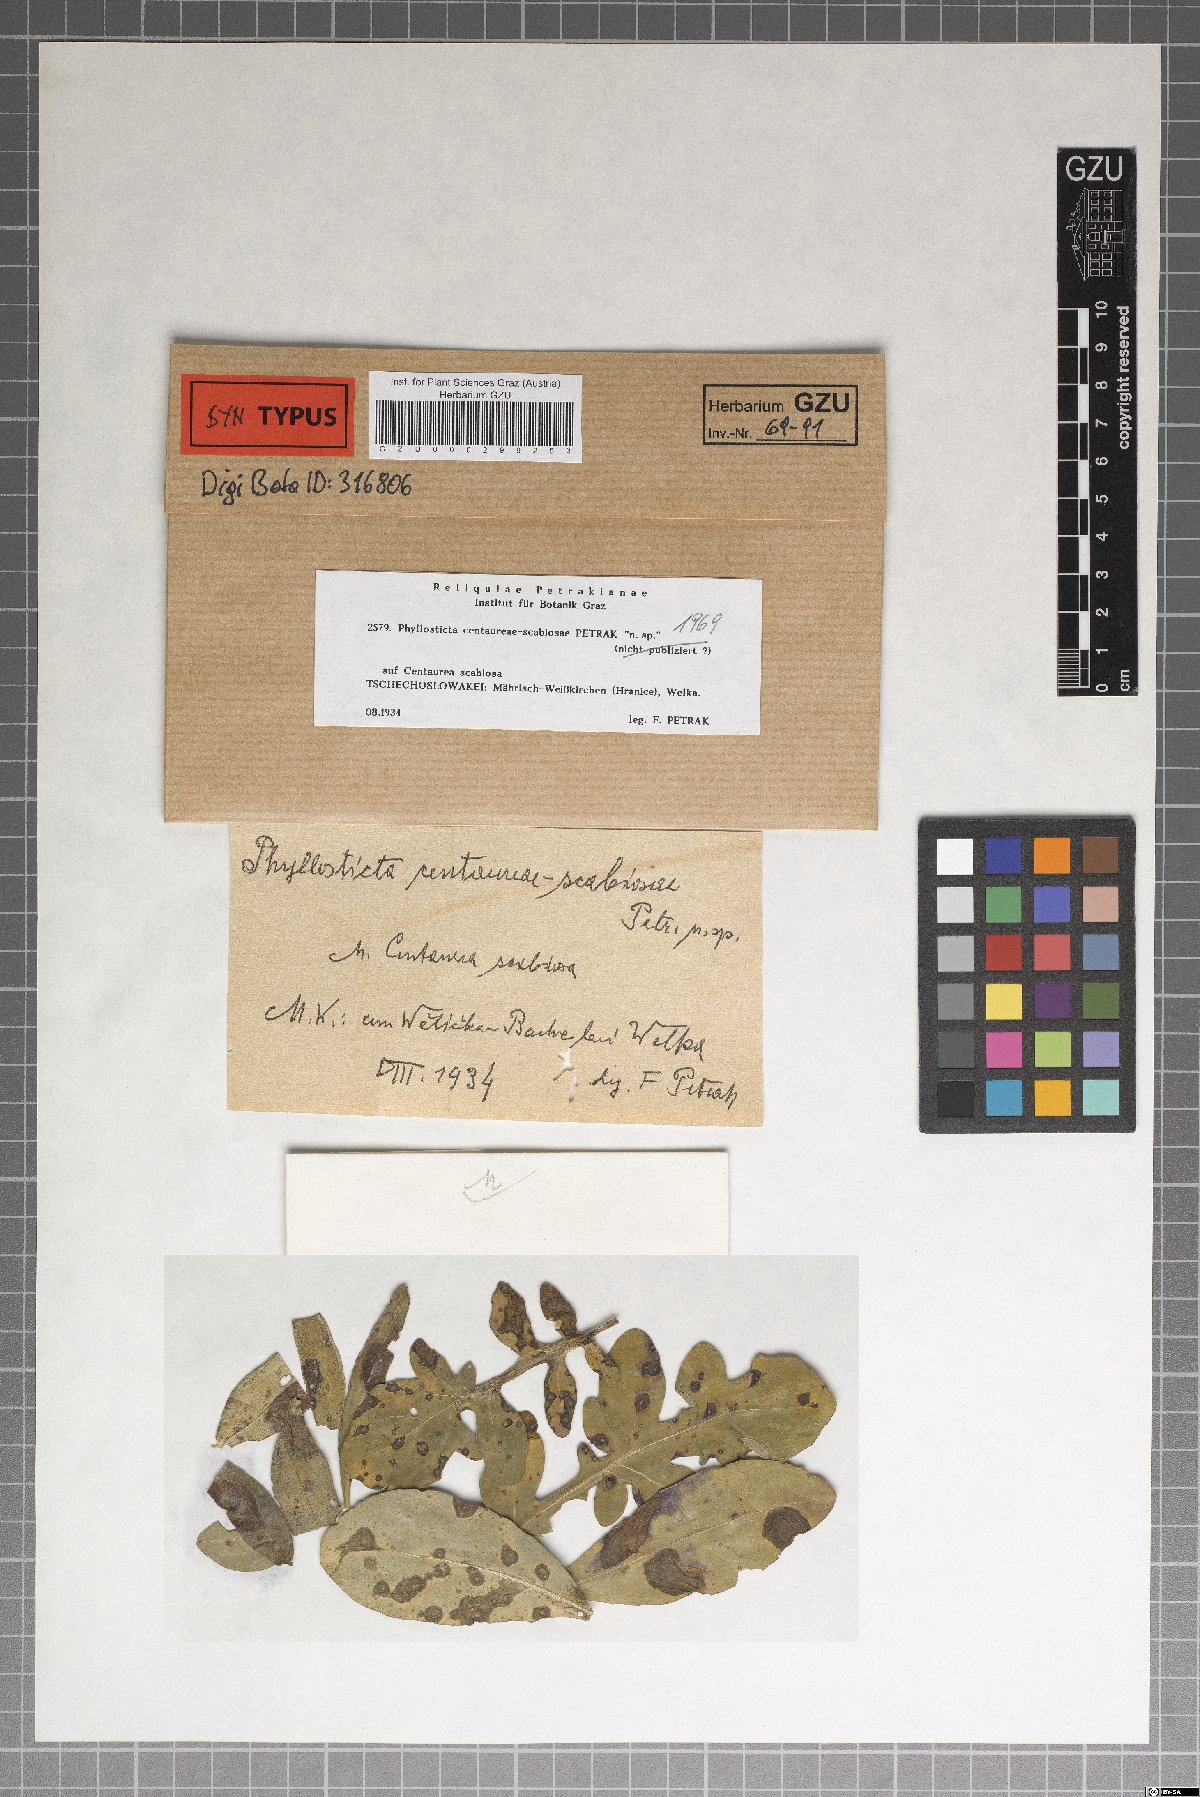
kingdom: Fungi
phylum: Ascomycota
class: Dothideomycetes
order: Botryosphaeriales
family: Phyllostictaceae
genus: Phyllosticta
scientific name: Phyllosticta centaureae-scabiosae
